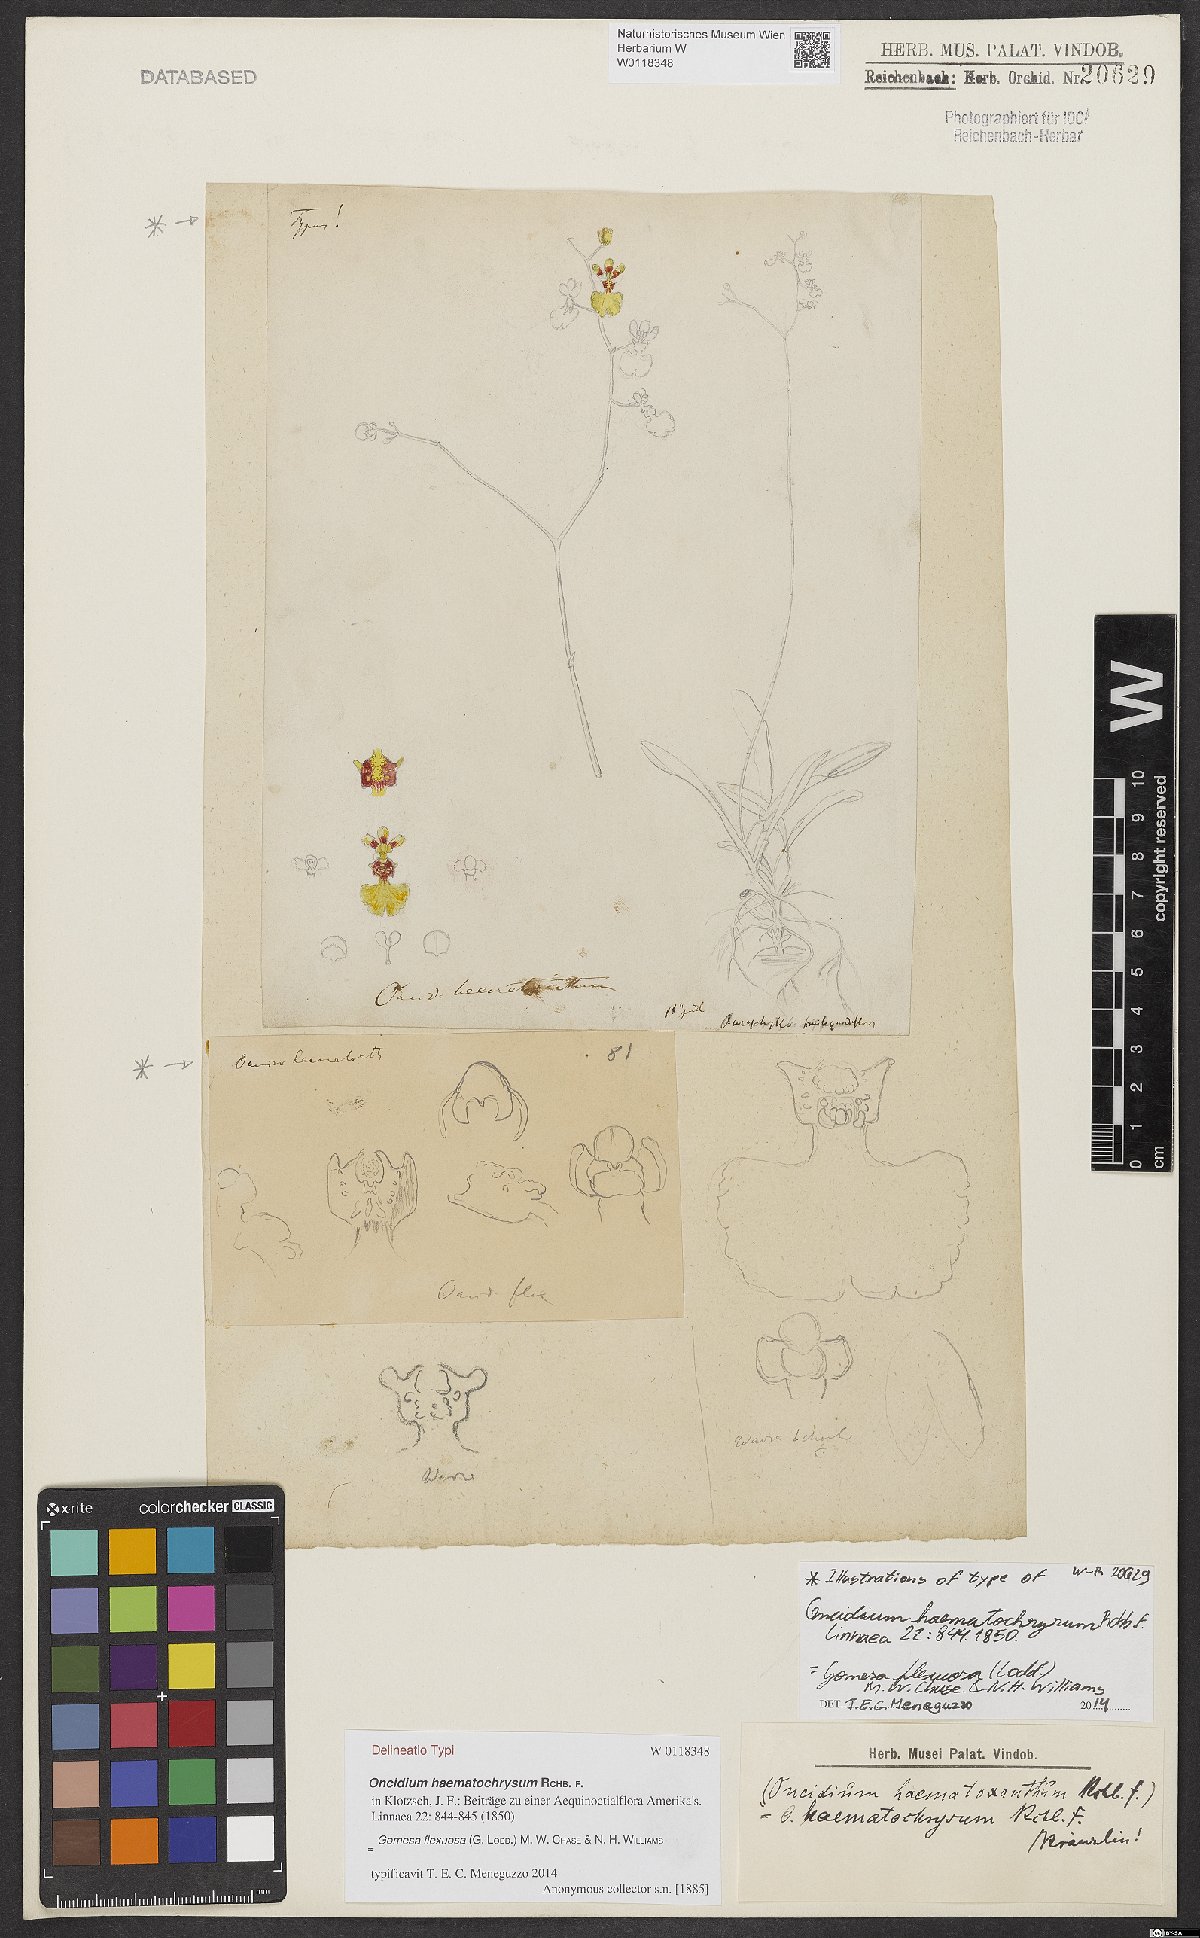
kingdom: Plantae
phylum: Tracheophyta
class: Liliopsida
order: Asparagales
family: Orchidaceae
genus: Gomesa
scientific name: Gomesa flexuosa
